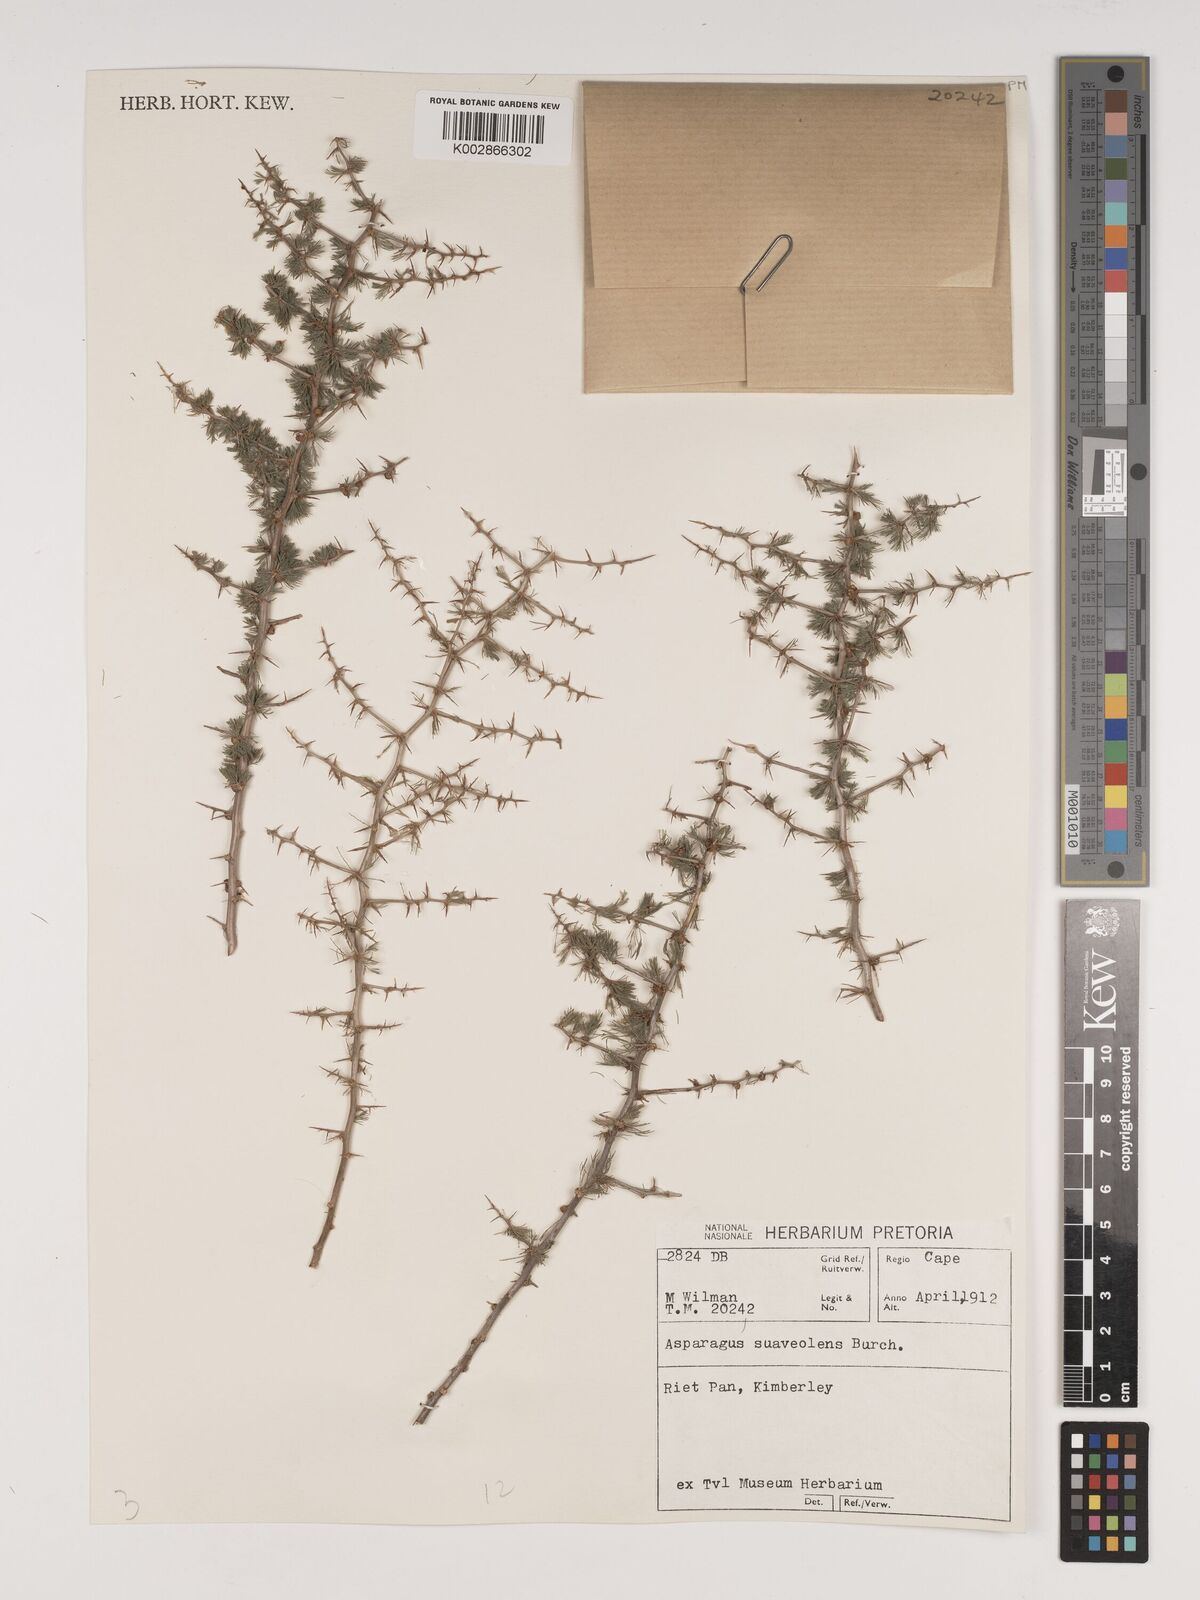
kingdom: Plantae
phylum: Tracheophyta
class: Liliopsida
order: Asparagales
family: Asparagaceae
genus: Asparagus
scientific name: Asparagus suaveolens
